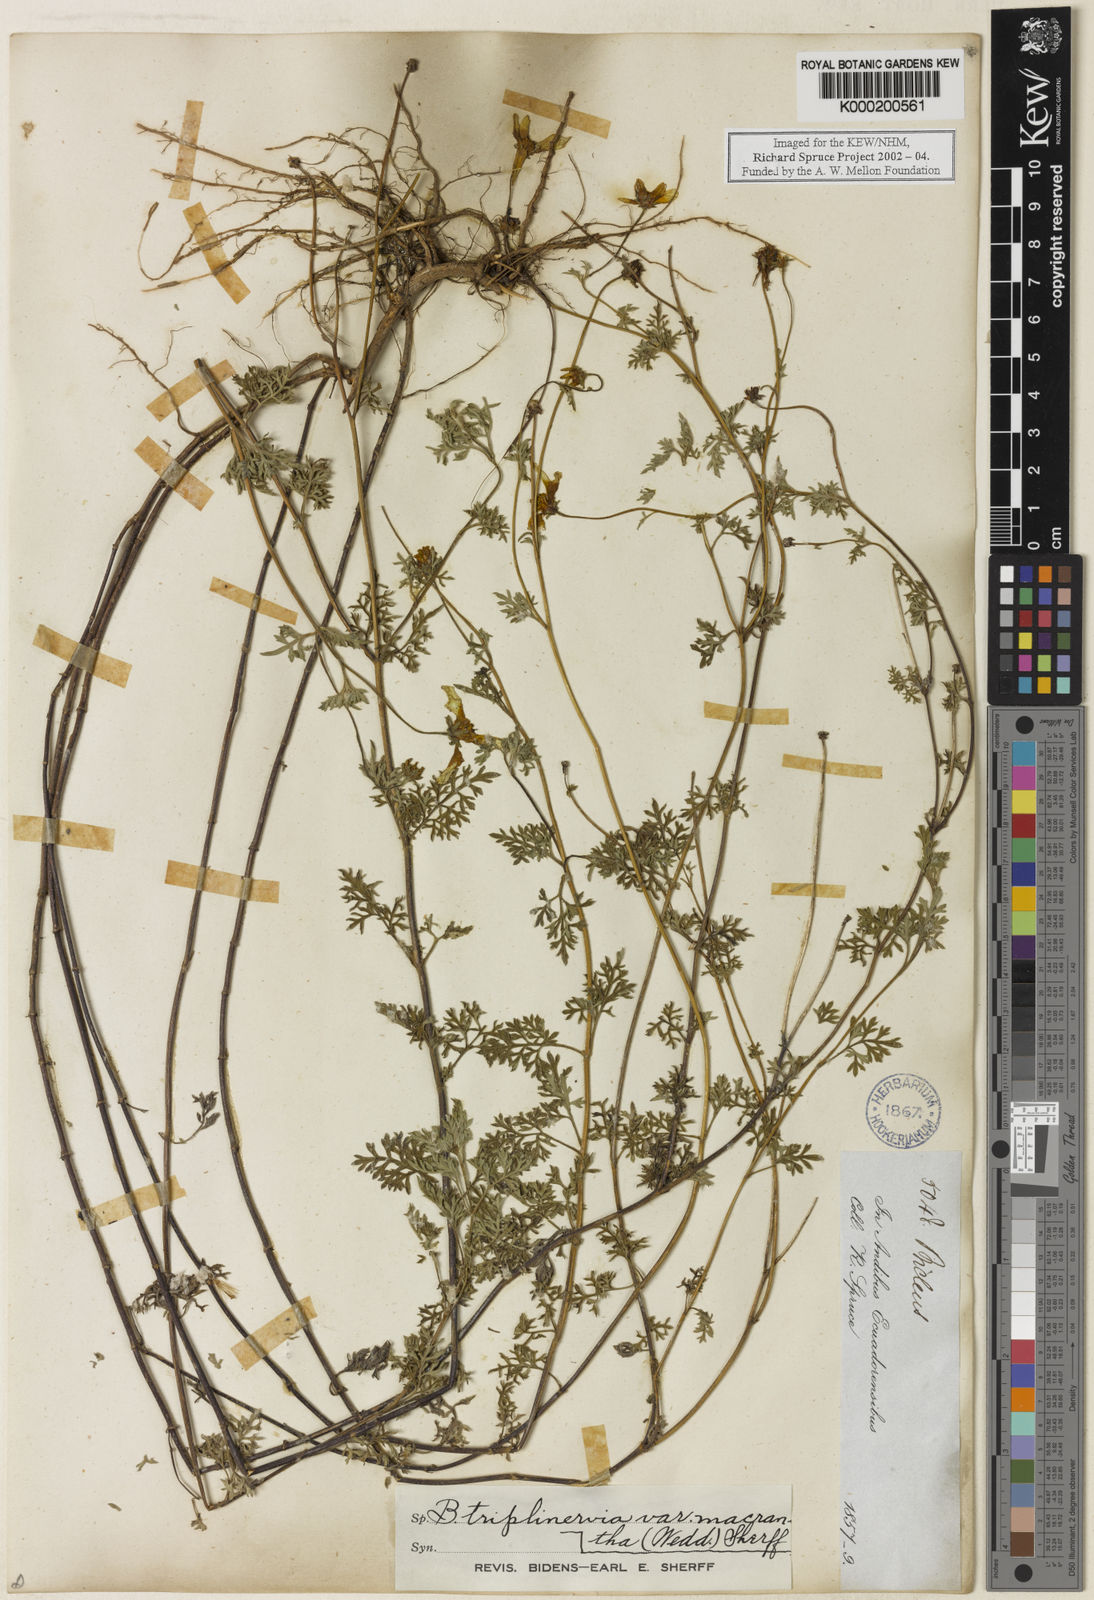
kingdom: Plantae
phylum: Tracheophyta
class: Magnoliopsida
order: Asterales
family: Asteraceae
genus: Bidens
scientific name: Bidens triplinervia
